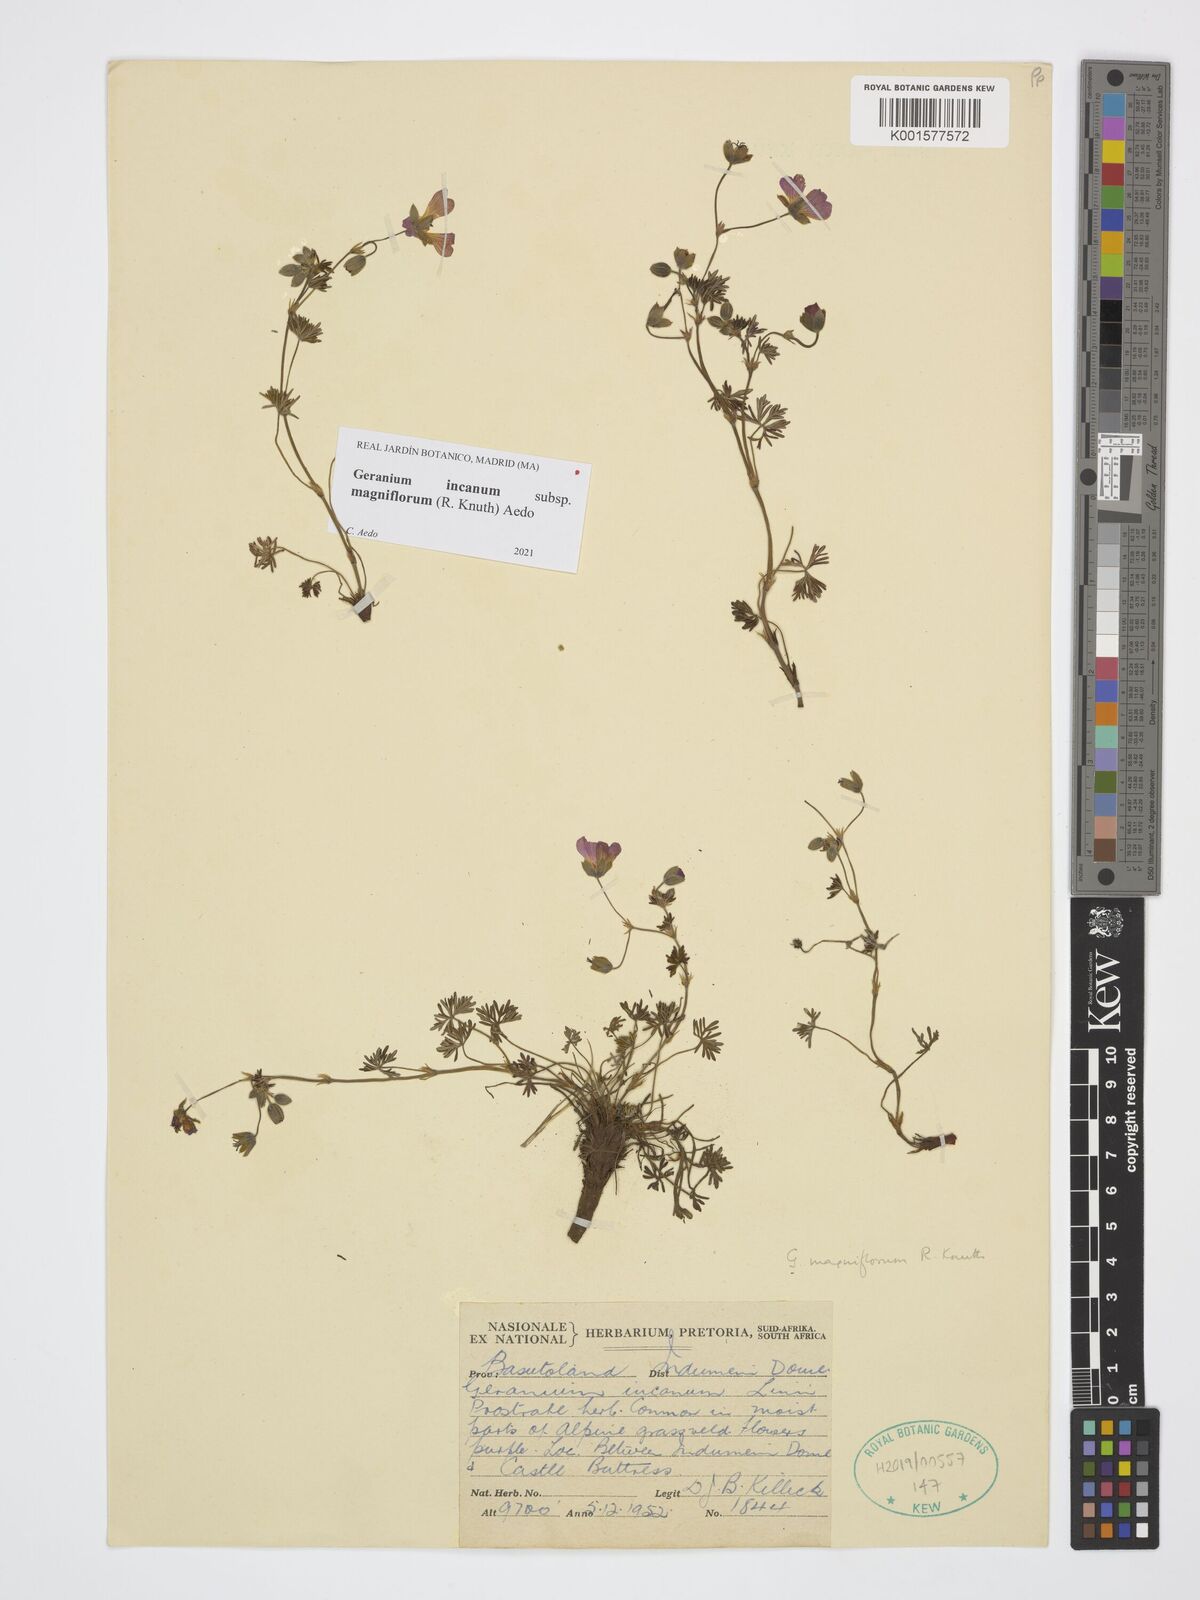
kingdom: Plantae
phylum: Tracheophyta
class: Magnoliopsida
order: Geraniales
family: Geraniaceae
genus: Geranium
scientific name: Geranium incanum
